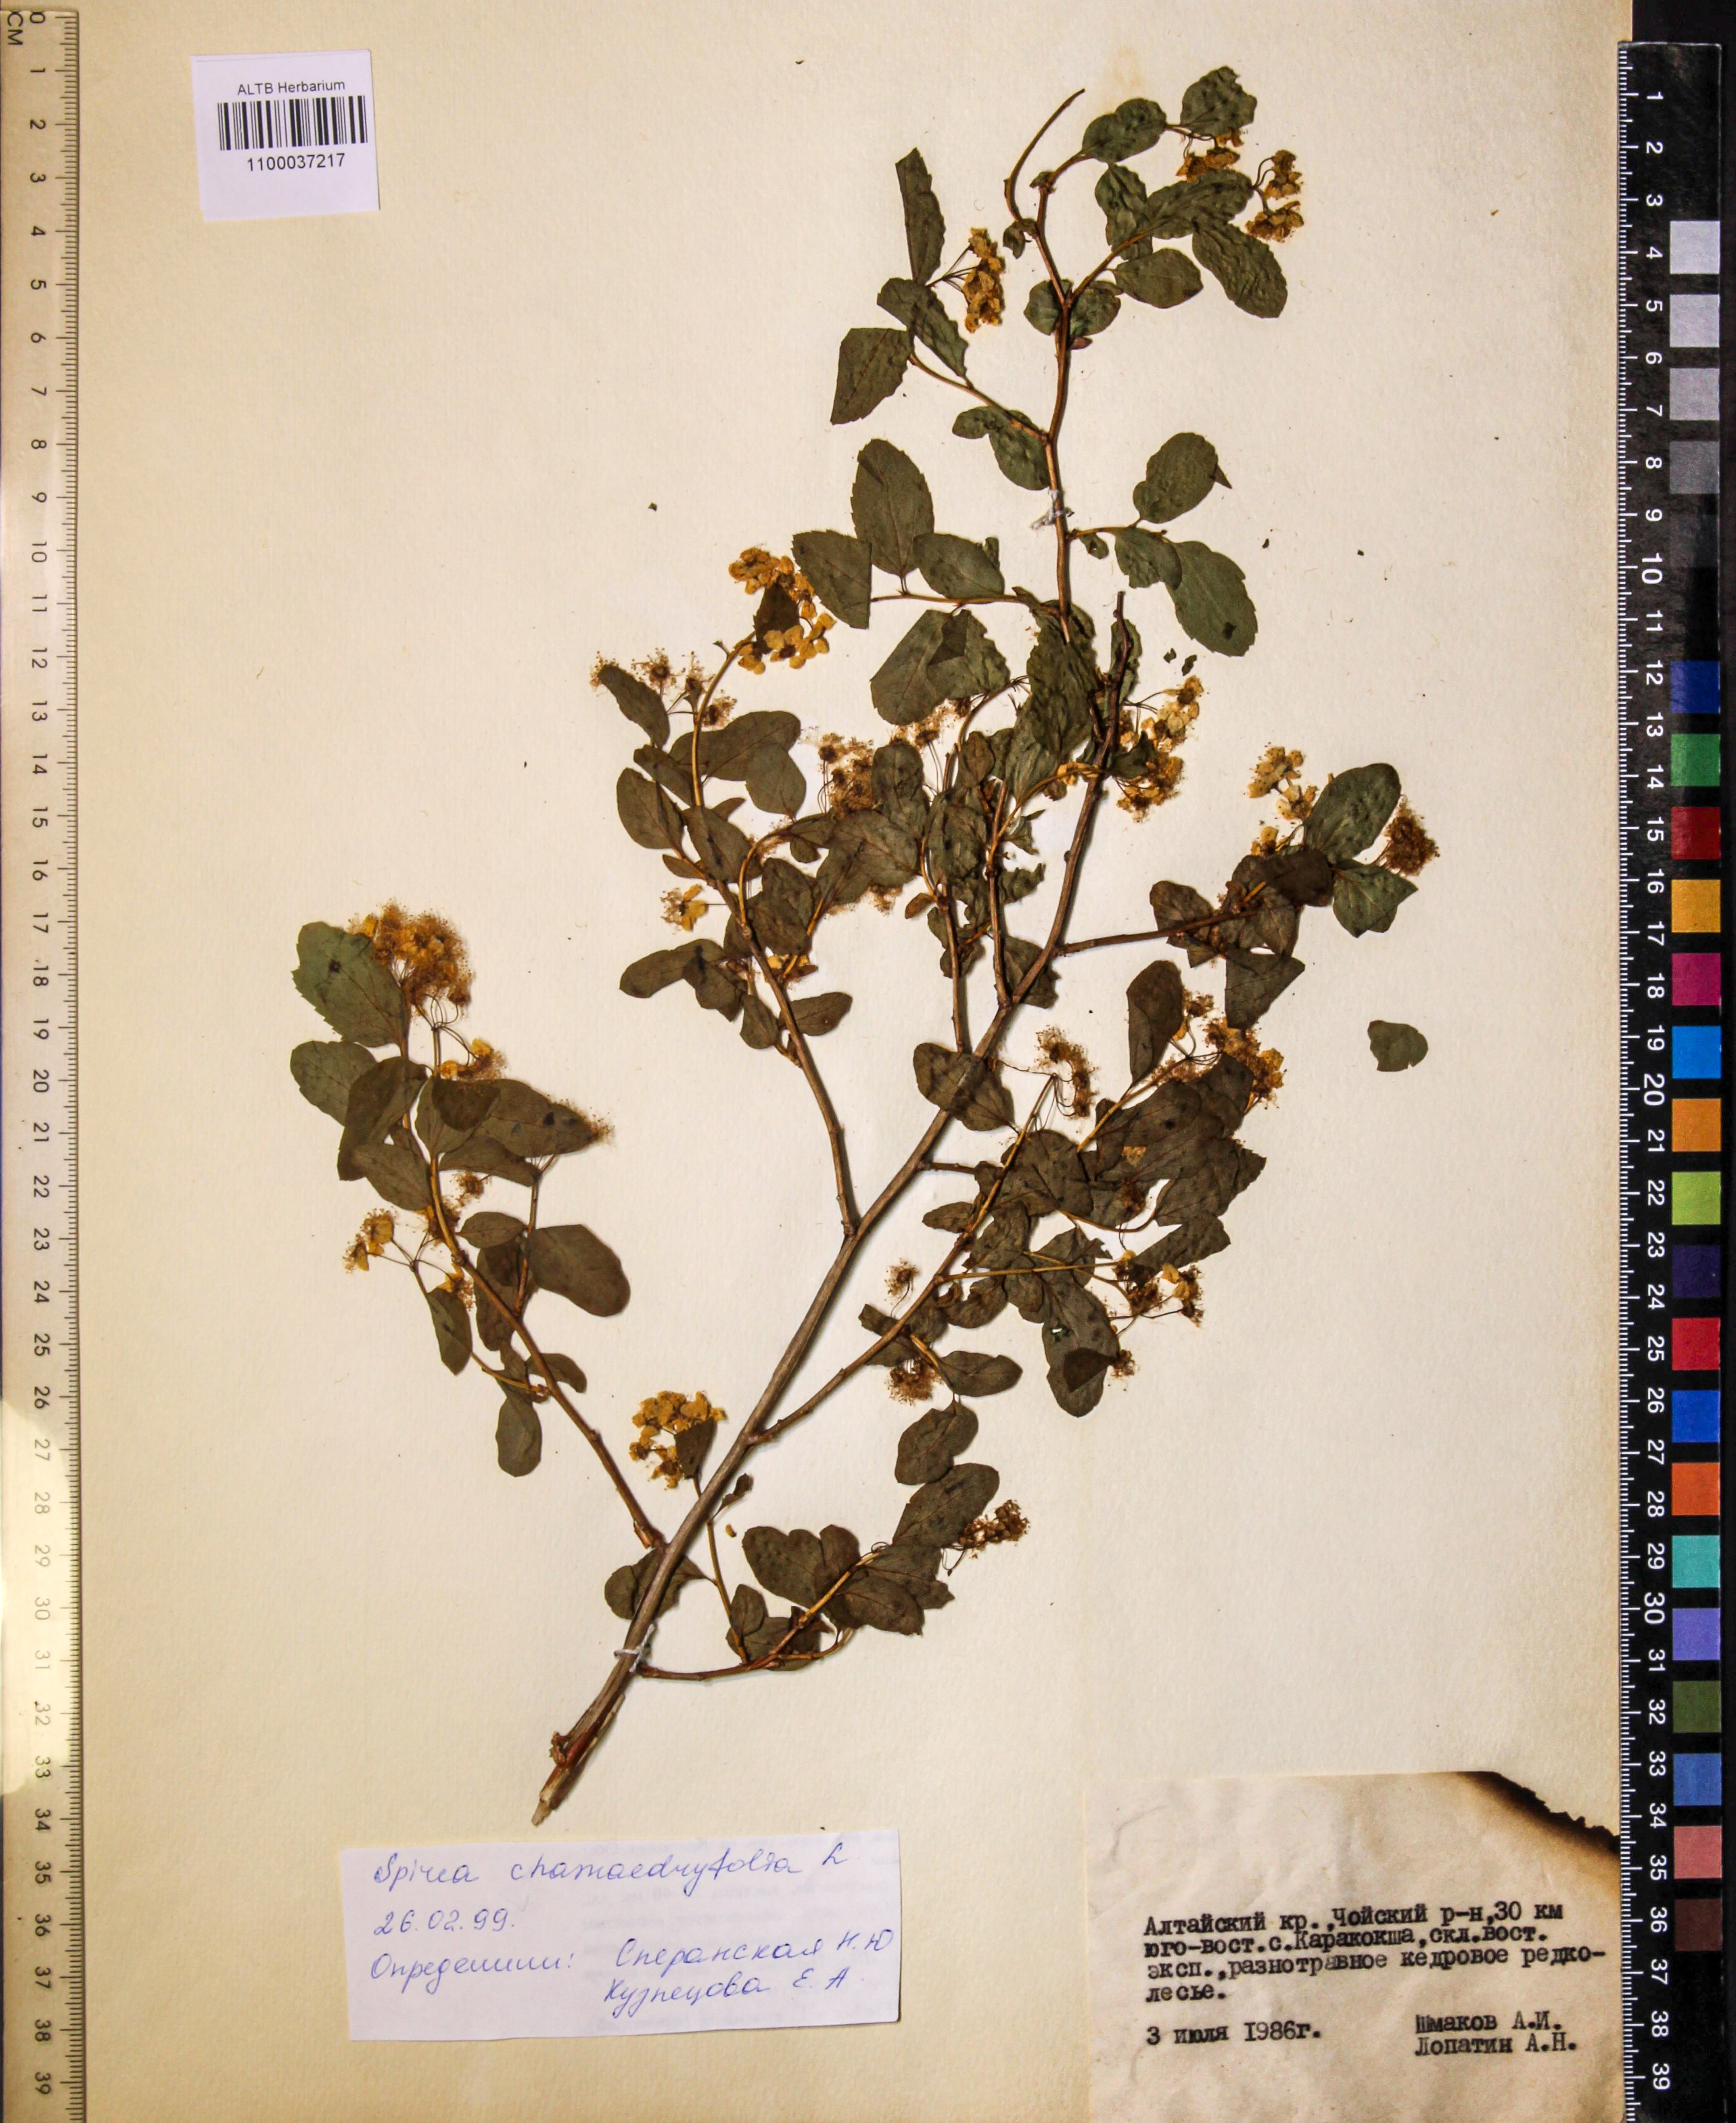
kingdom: Plantae
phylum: Tracheophyta
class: Magnoliopsida
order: Rosales
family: Rosaceae
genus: Spiraea
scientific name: Spiraea chamaedryfolia
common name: Elm-leaved spiraea
